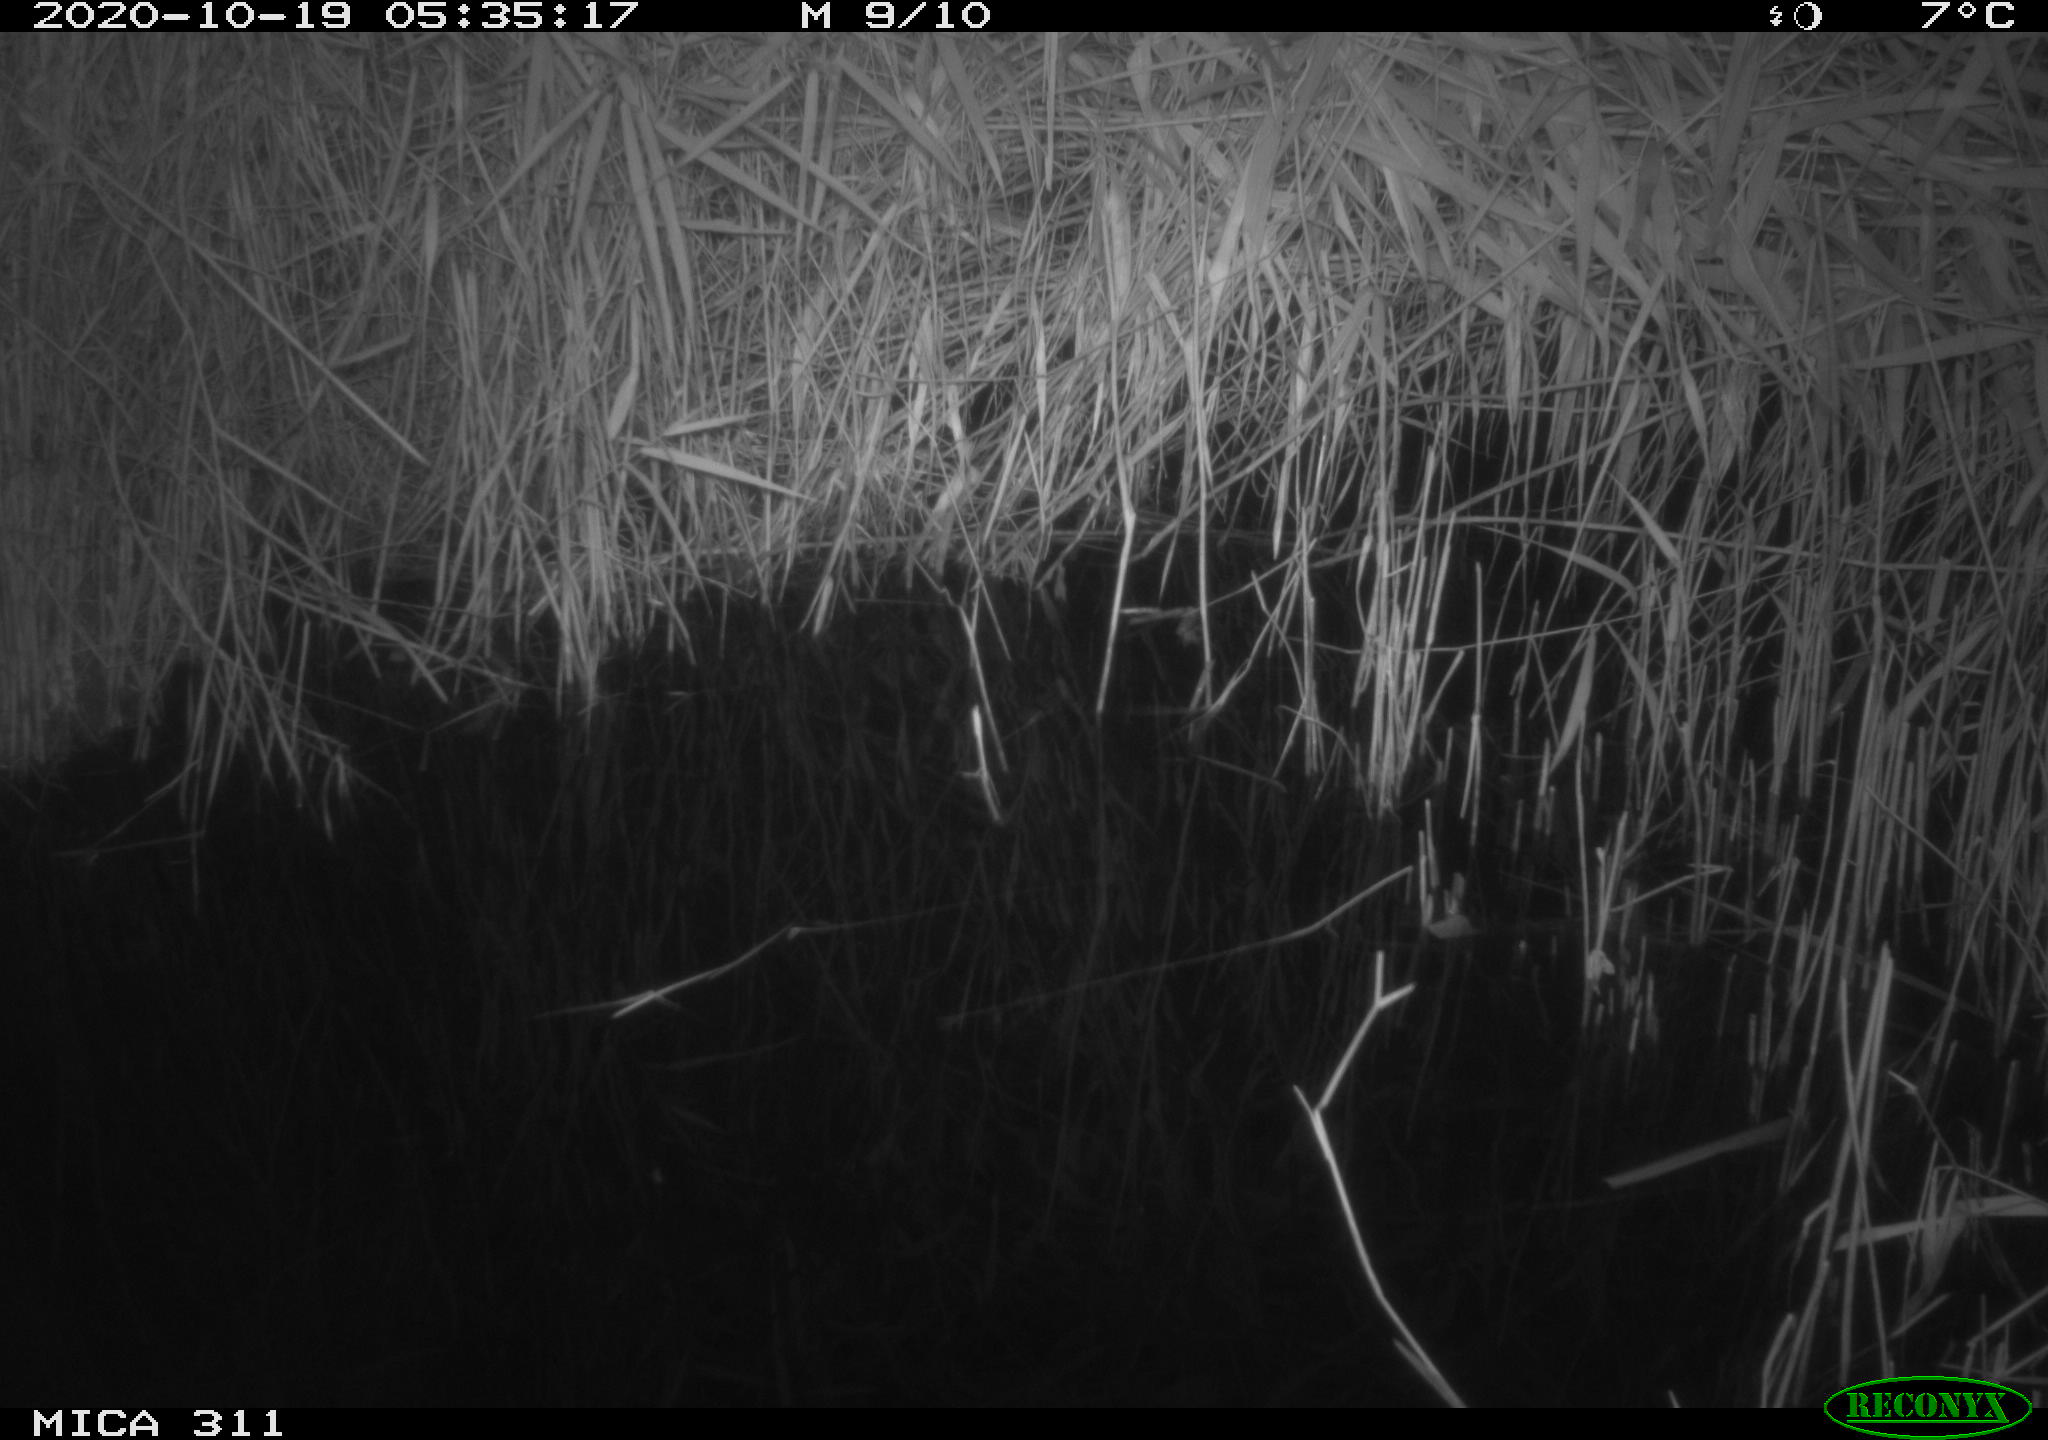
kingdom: Animalia
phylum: Chordata
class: Mammalia
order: Rodentia
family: Muridae
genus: Rattus
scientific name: Rattus norvegicus
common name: Brown rat
